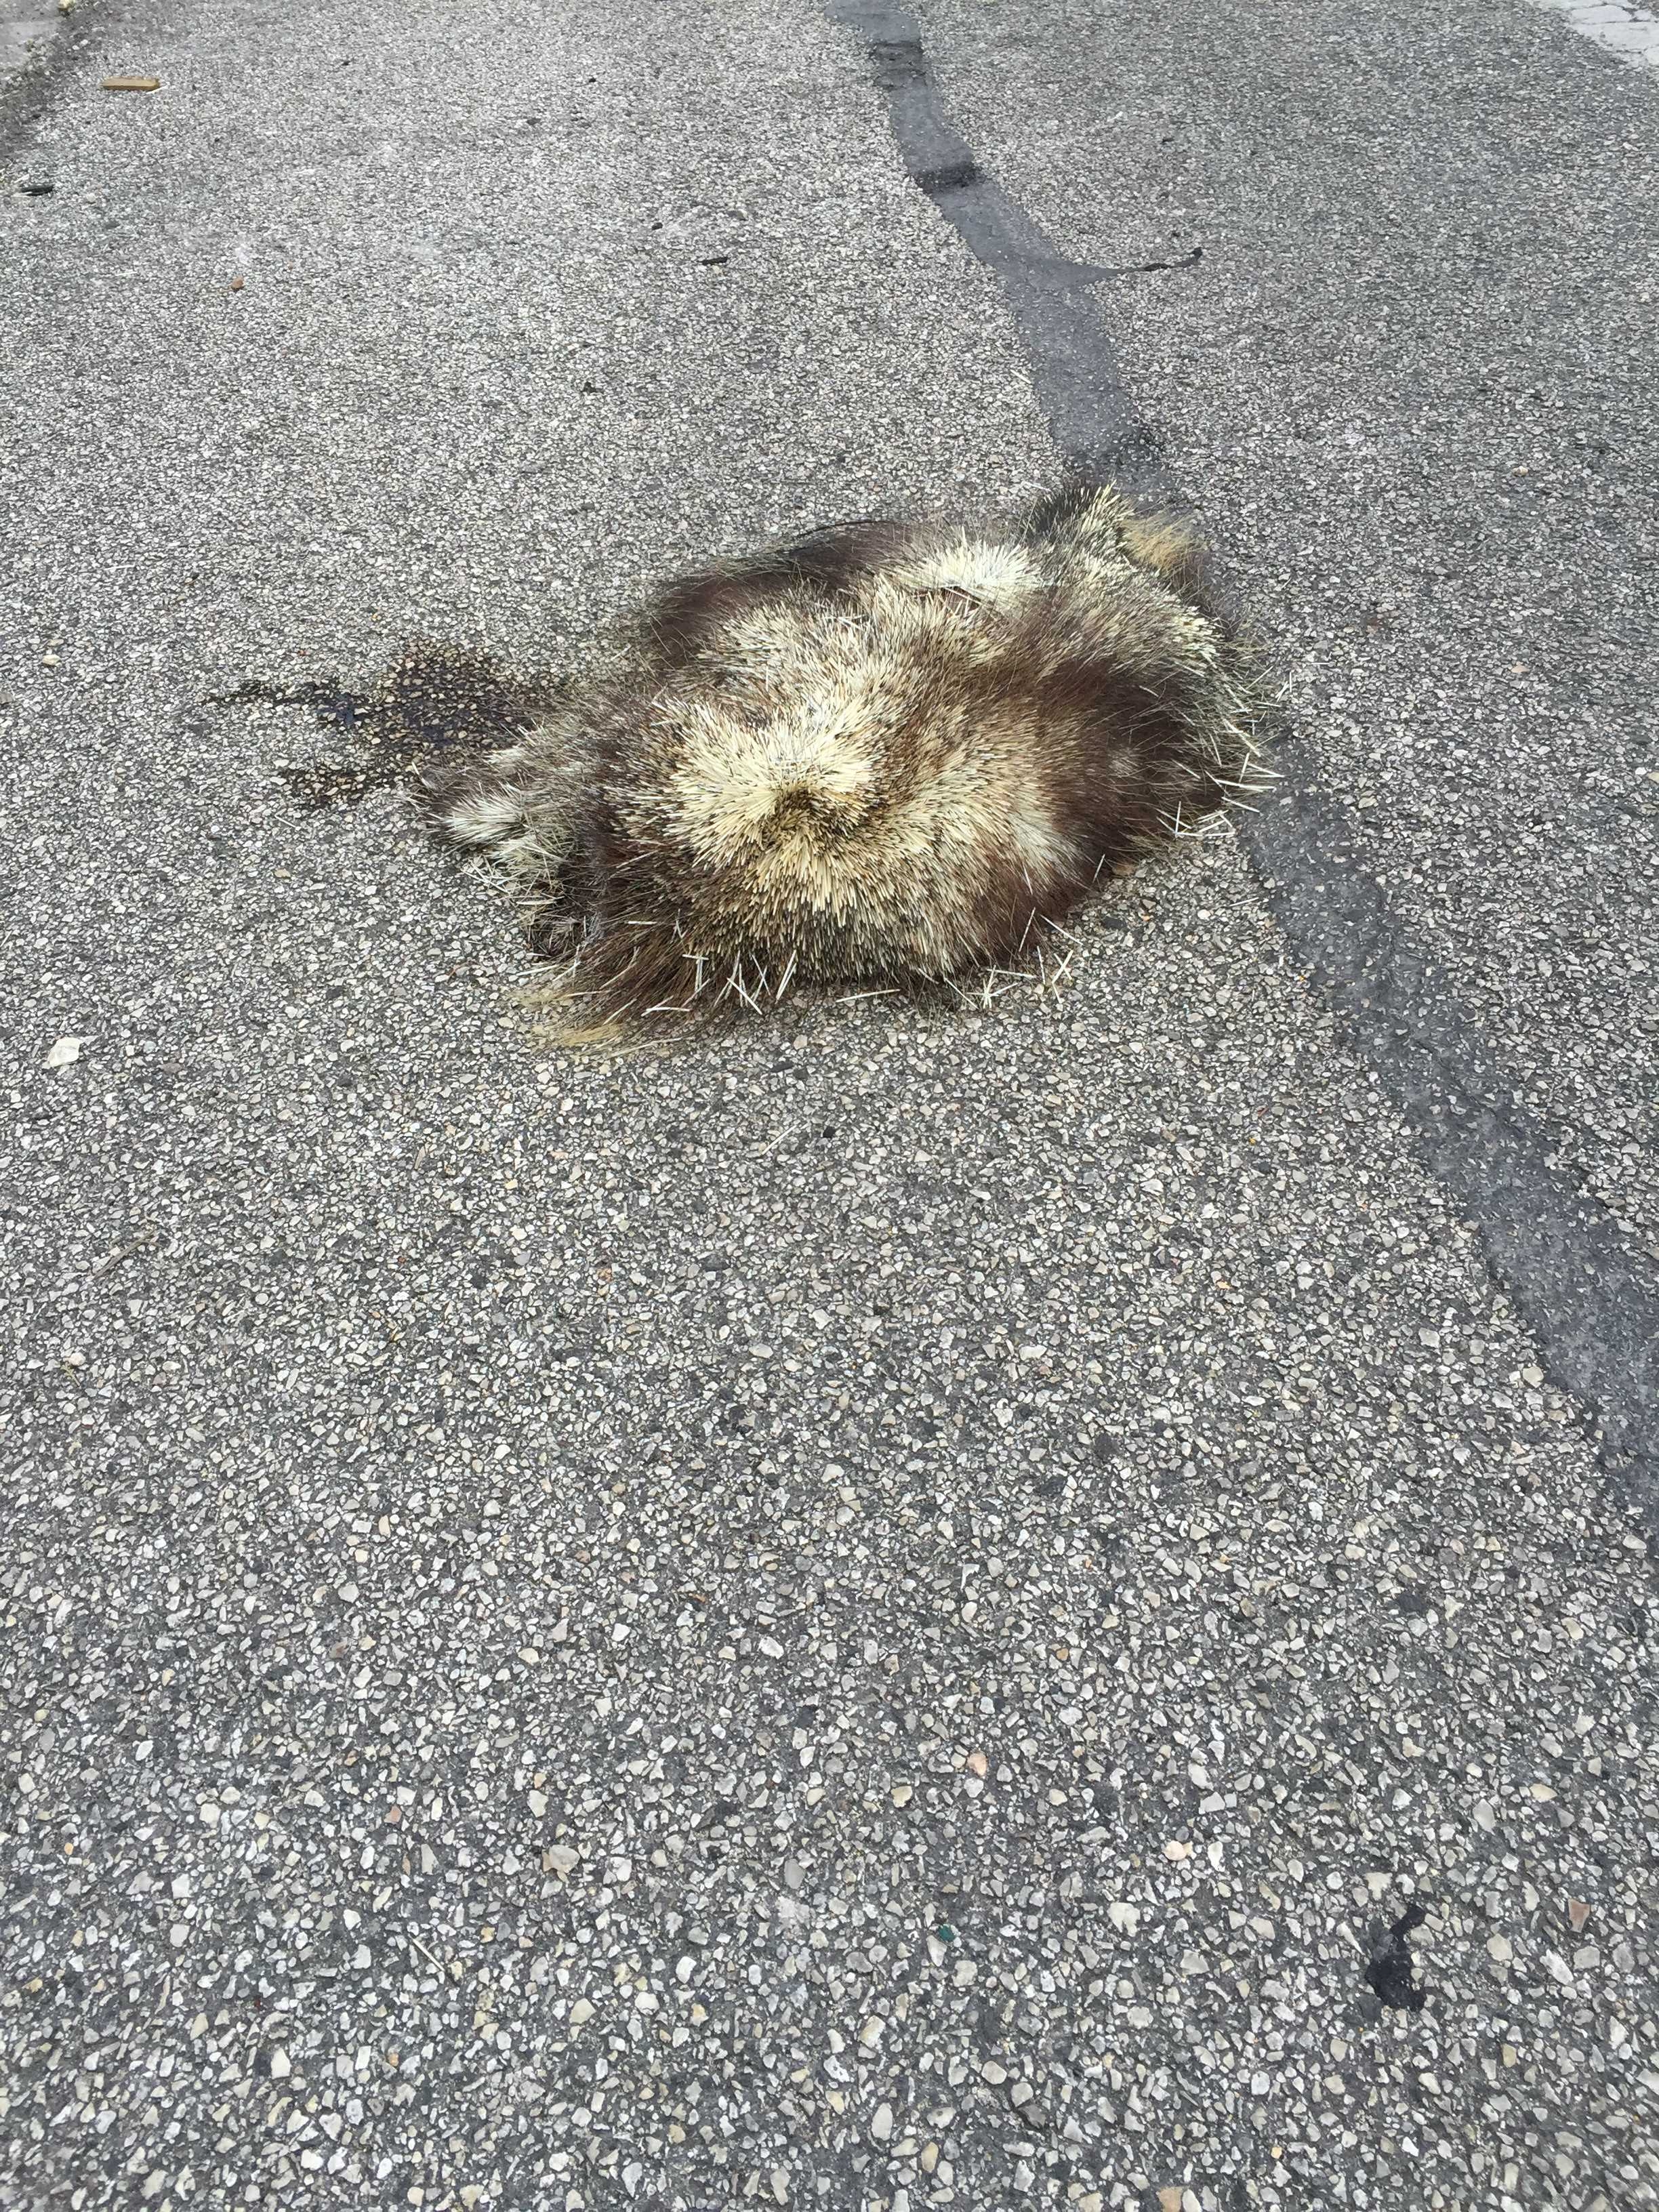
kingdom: Animalia
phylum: Chordata
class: Mammalia
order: Rodentia
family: Erethizontidae
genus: Erethizon
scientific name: Erethizon dorsatus
